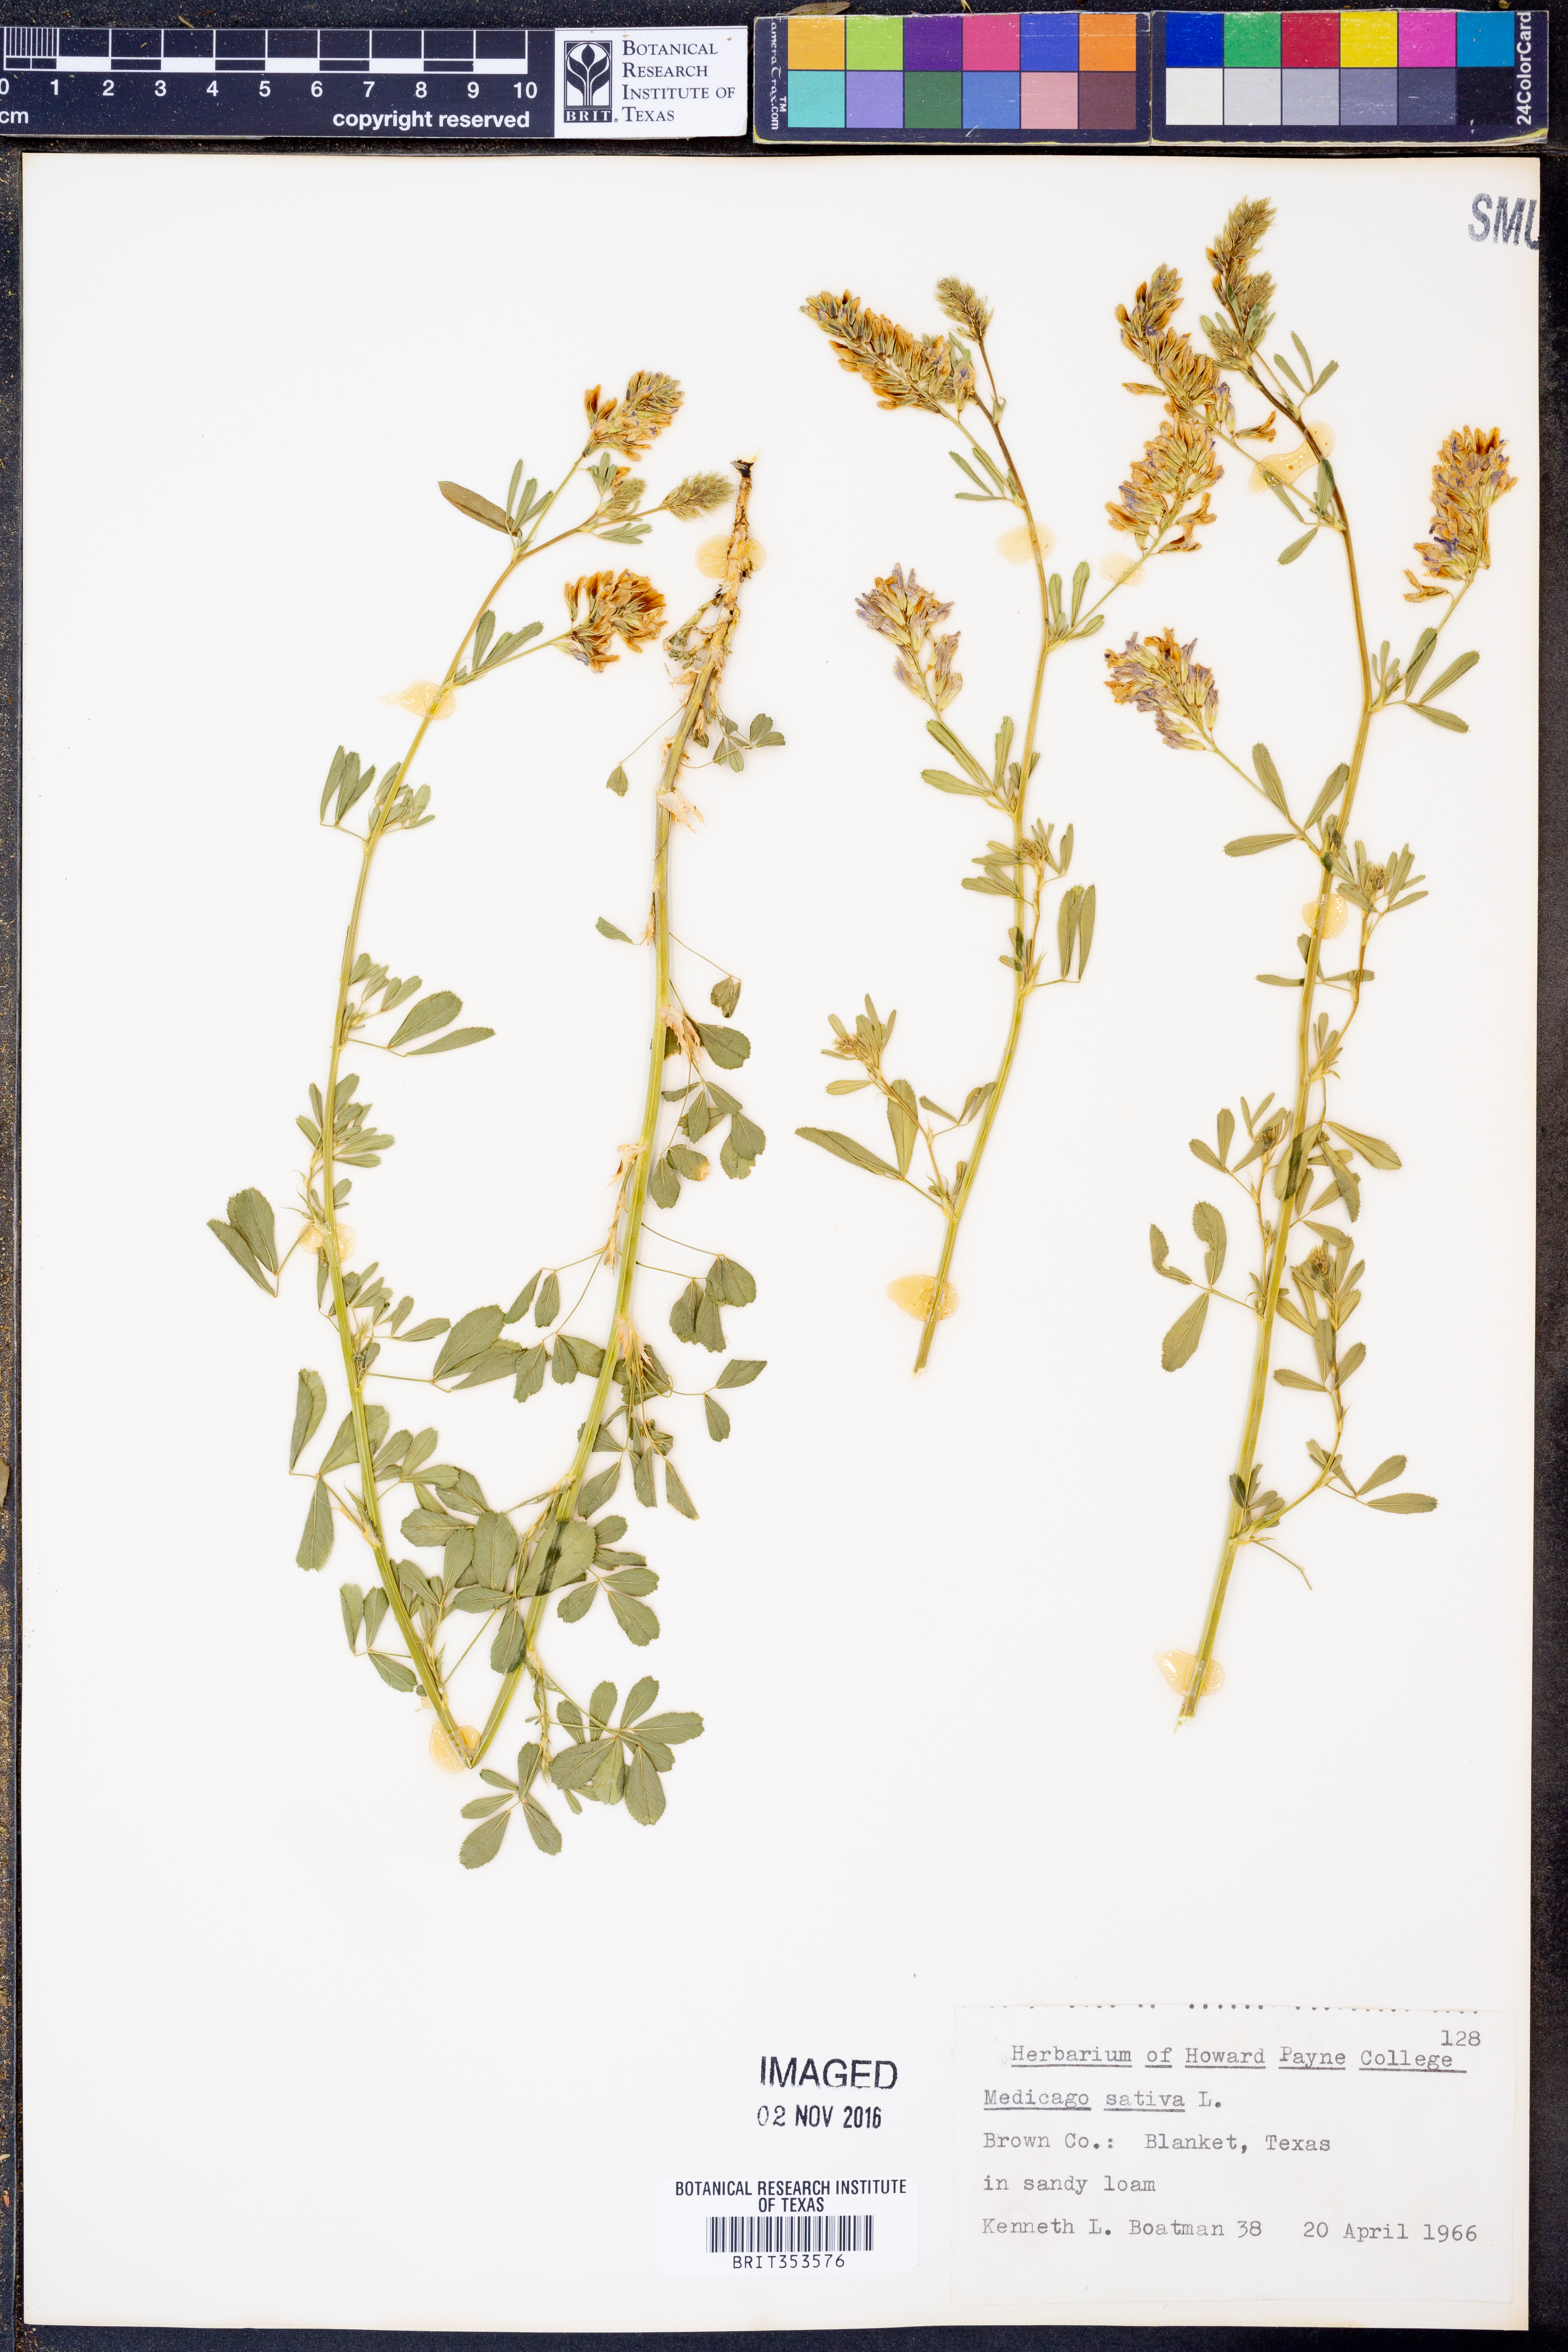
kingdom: Plantae
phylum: Tracheophyta
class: Magnoliopsida
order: Fabales
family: Fabaceae
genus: Medicago
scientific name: Medicago sativa
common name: Alfalfa
